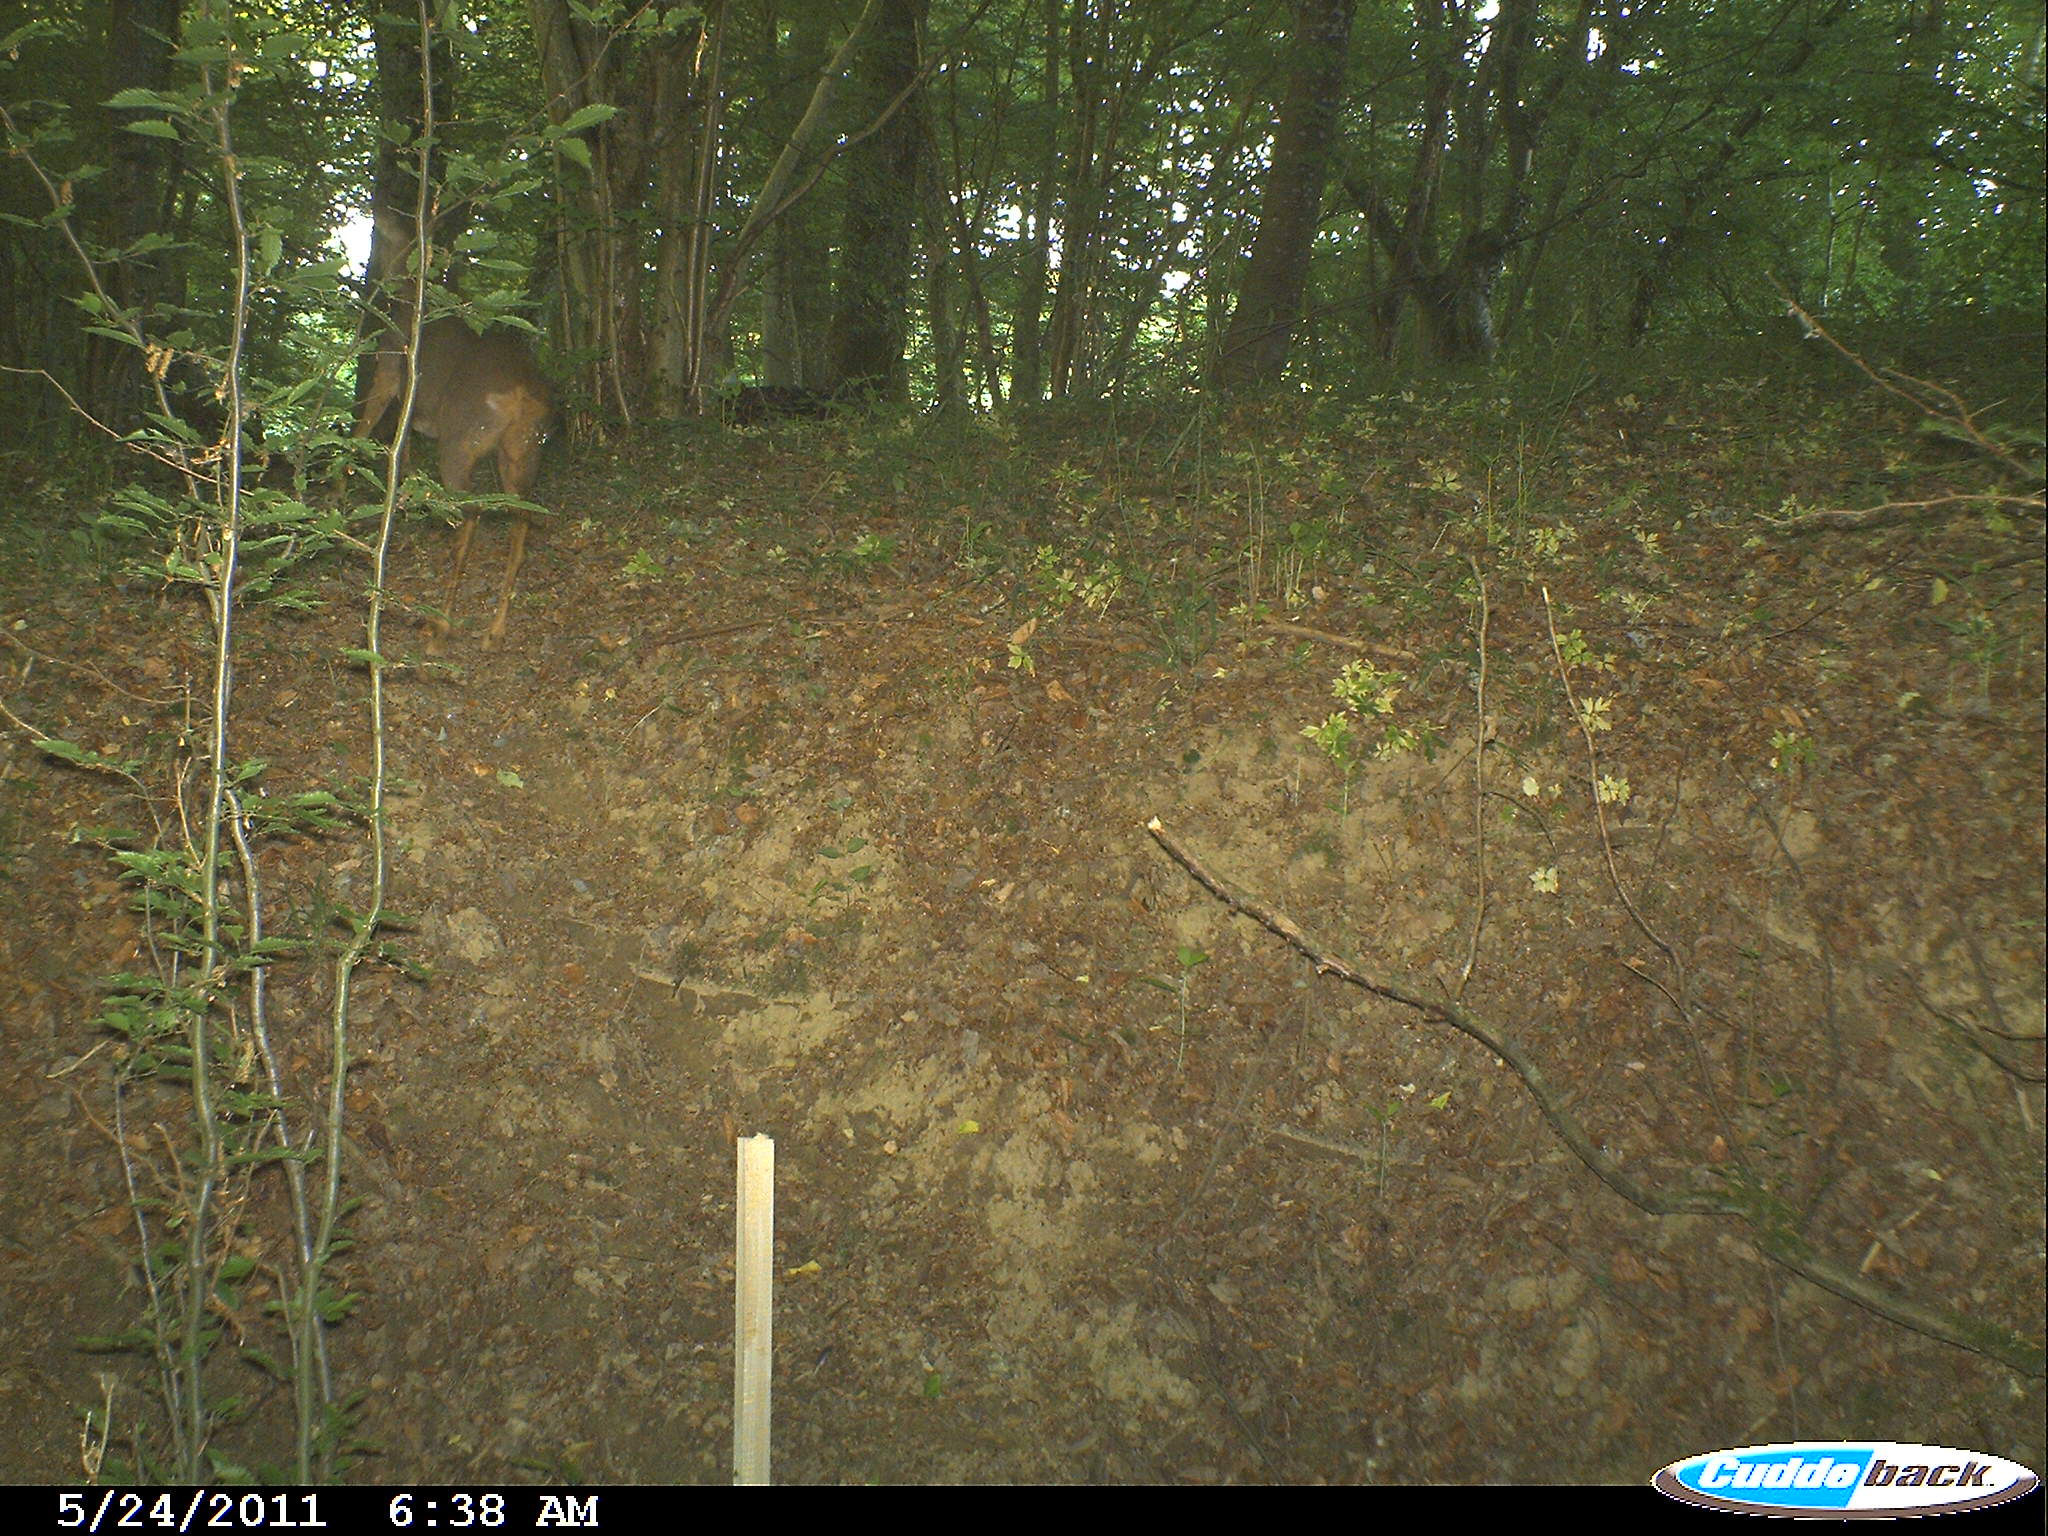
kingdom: Animalia
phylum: Chordata
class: Mammalia
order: Artiodactyla
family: Cervidae
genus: Capreolus
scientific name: Capreolus capreolus
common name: Western roe deer
